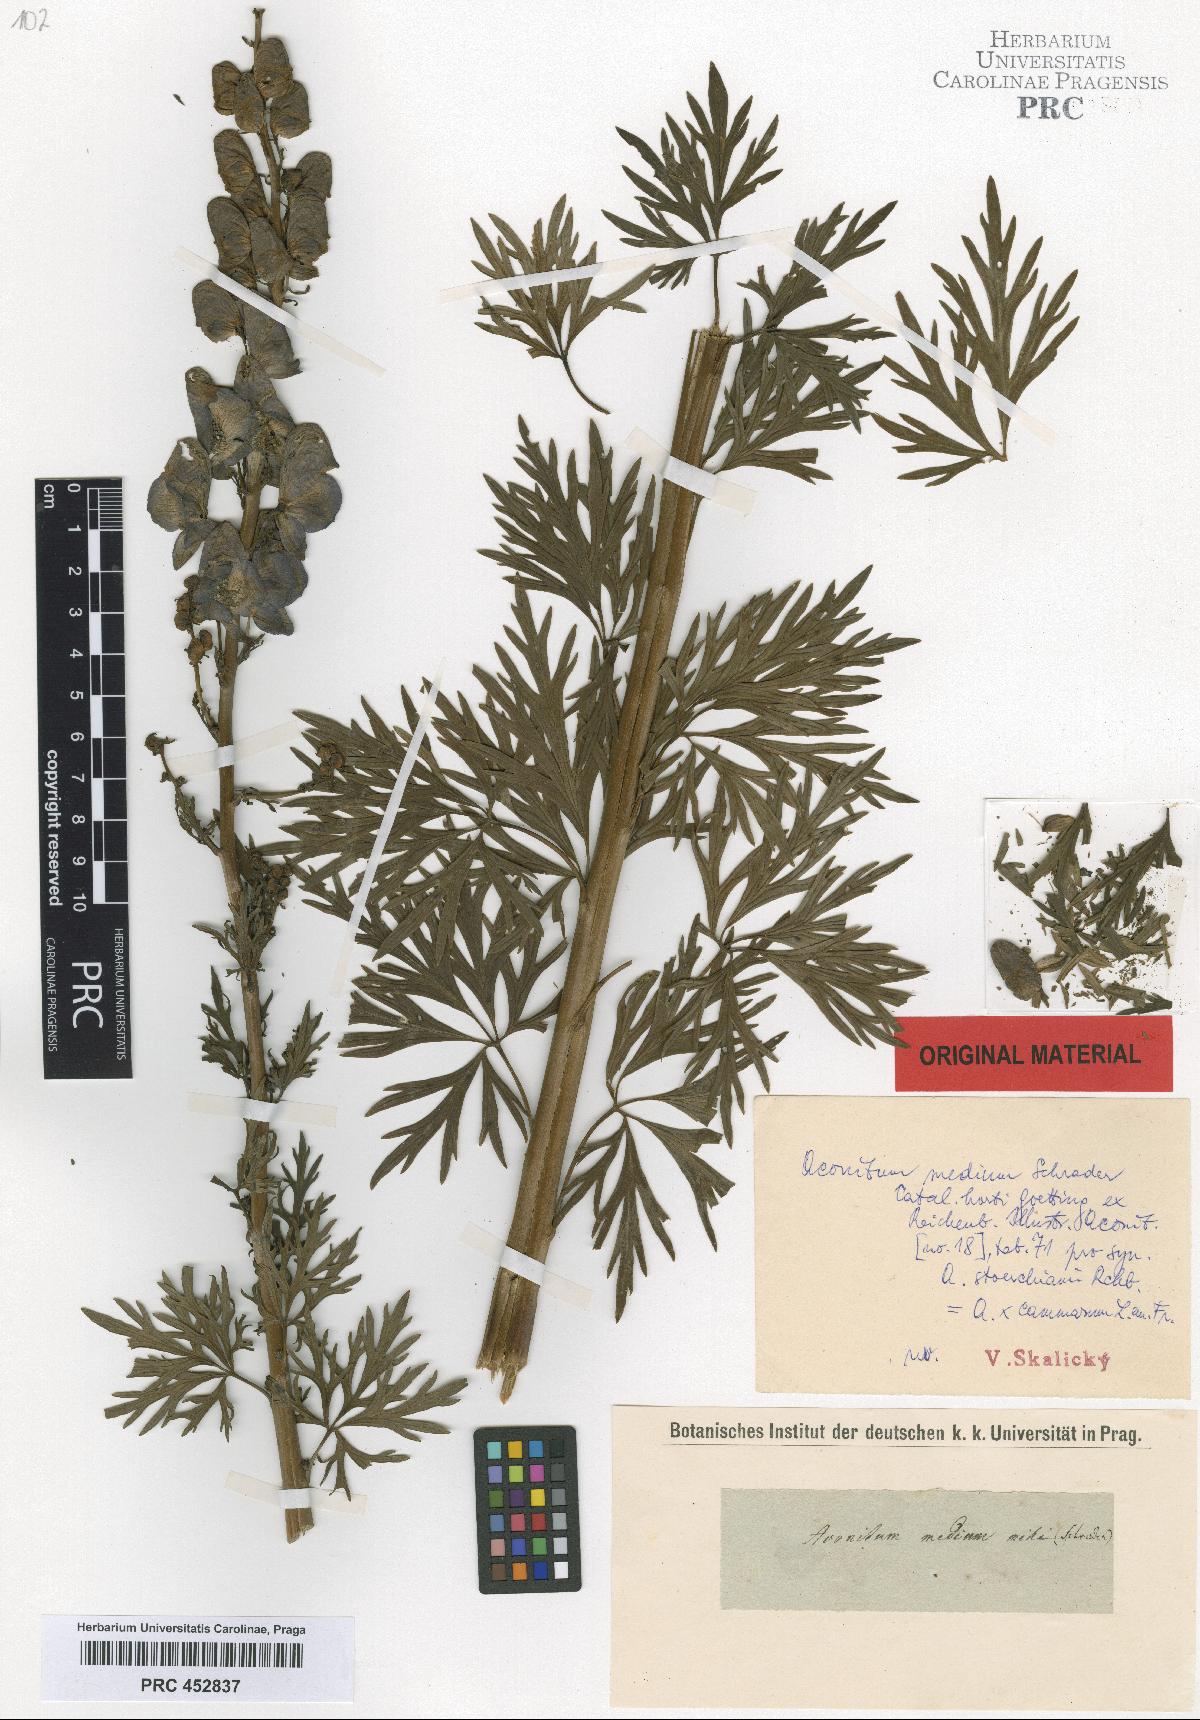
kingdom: Plantae
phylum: Tracheophyta
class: Magnoliopsida
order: Ranunculales
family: Ranunculaceae
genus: Aconitum
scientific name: Aconitum cammarum
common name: Hybrid monk's-hood
